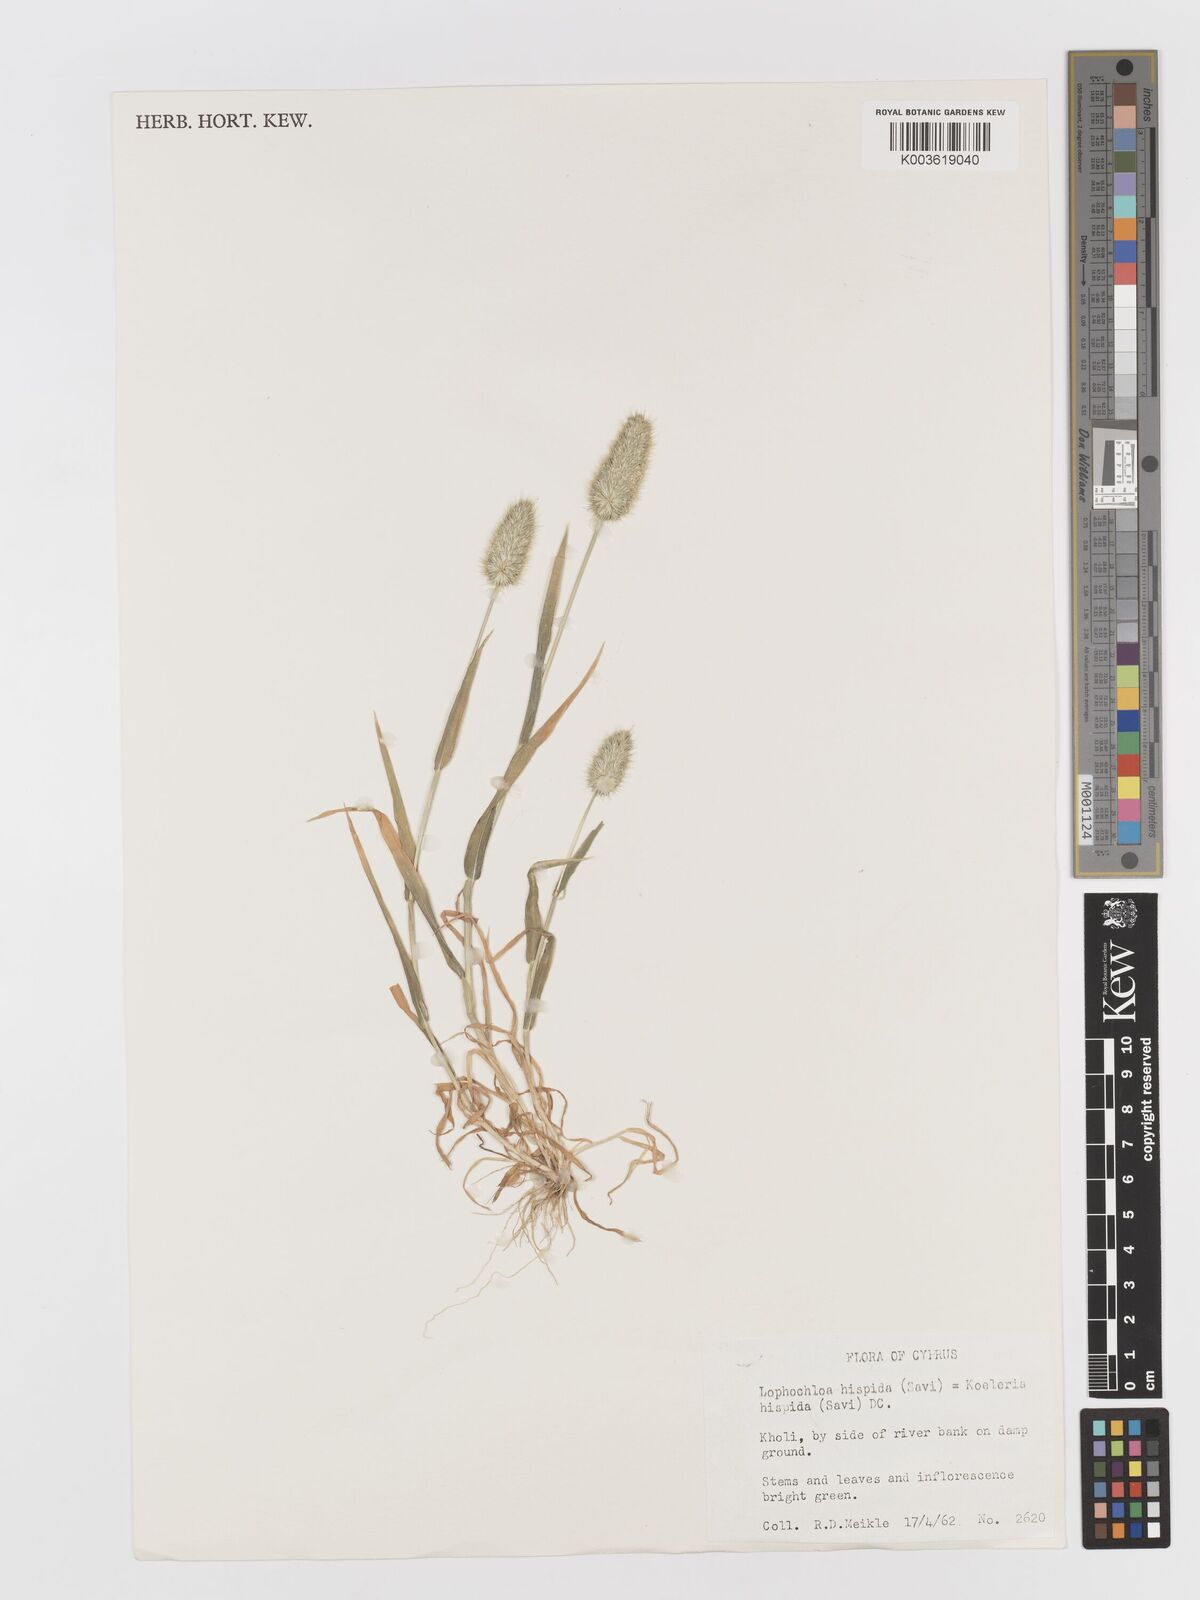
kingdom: Plantae
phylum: Tracheophyta
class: Liliopsida
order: Poales
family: Poaceae
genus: Rostraria
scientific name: Rostraria hispida
